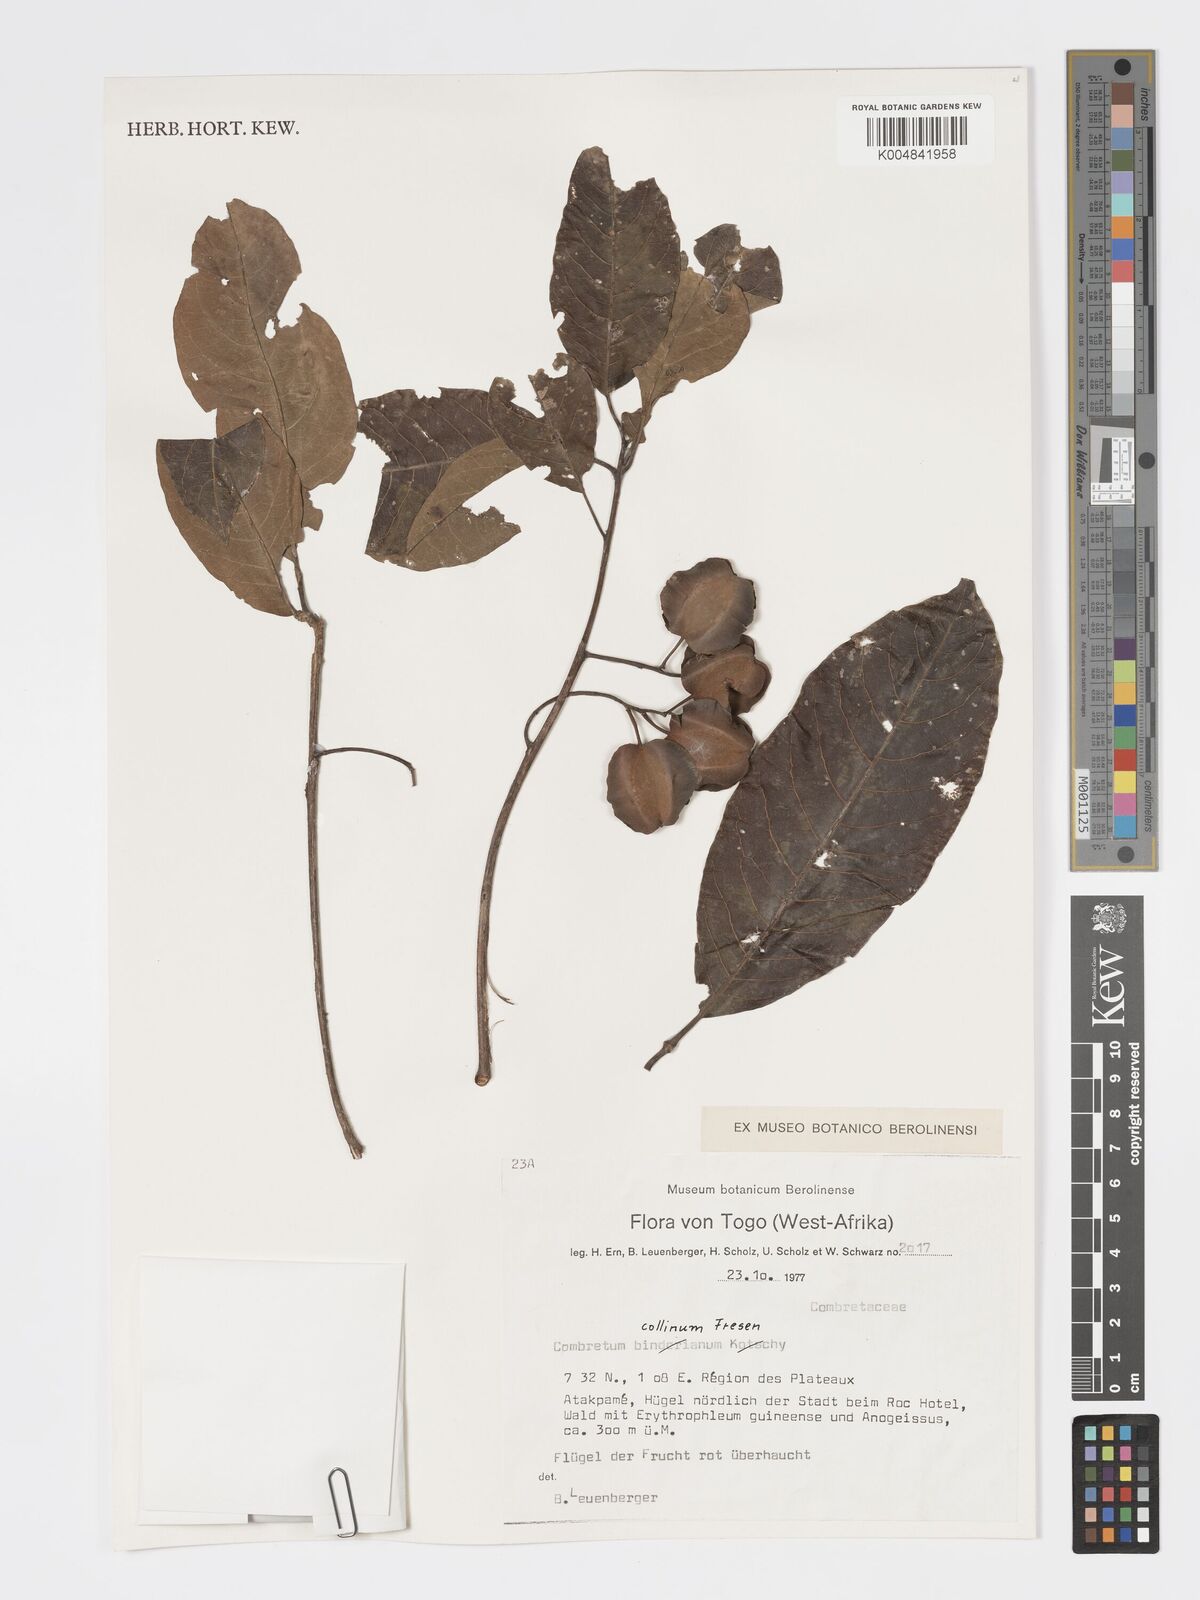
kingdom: Plantae
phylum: Tracheophyta
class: Magnoliopsida
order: Myrtales
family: Combretaceae
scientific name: Combretaceae
